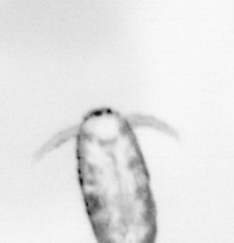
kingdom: Animalia
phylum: Arthropoda
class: Copepoda
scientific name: Copepoda
